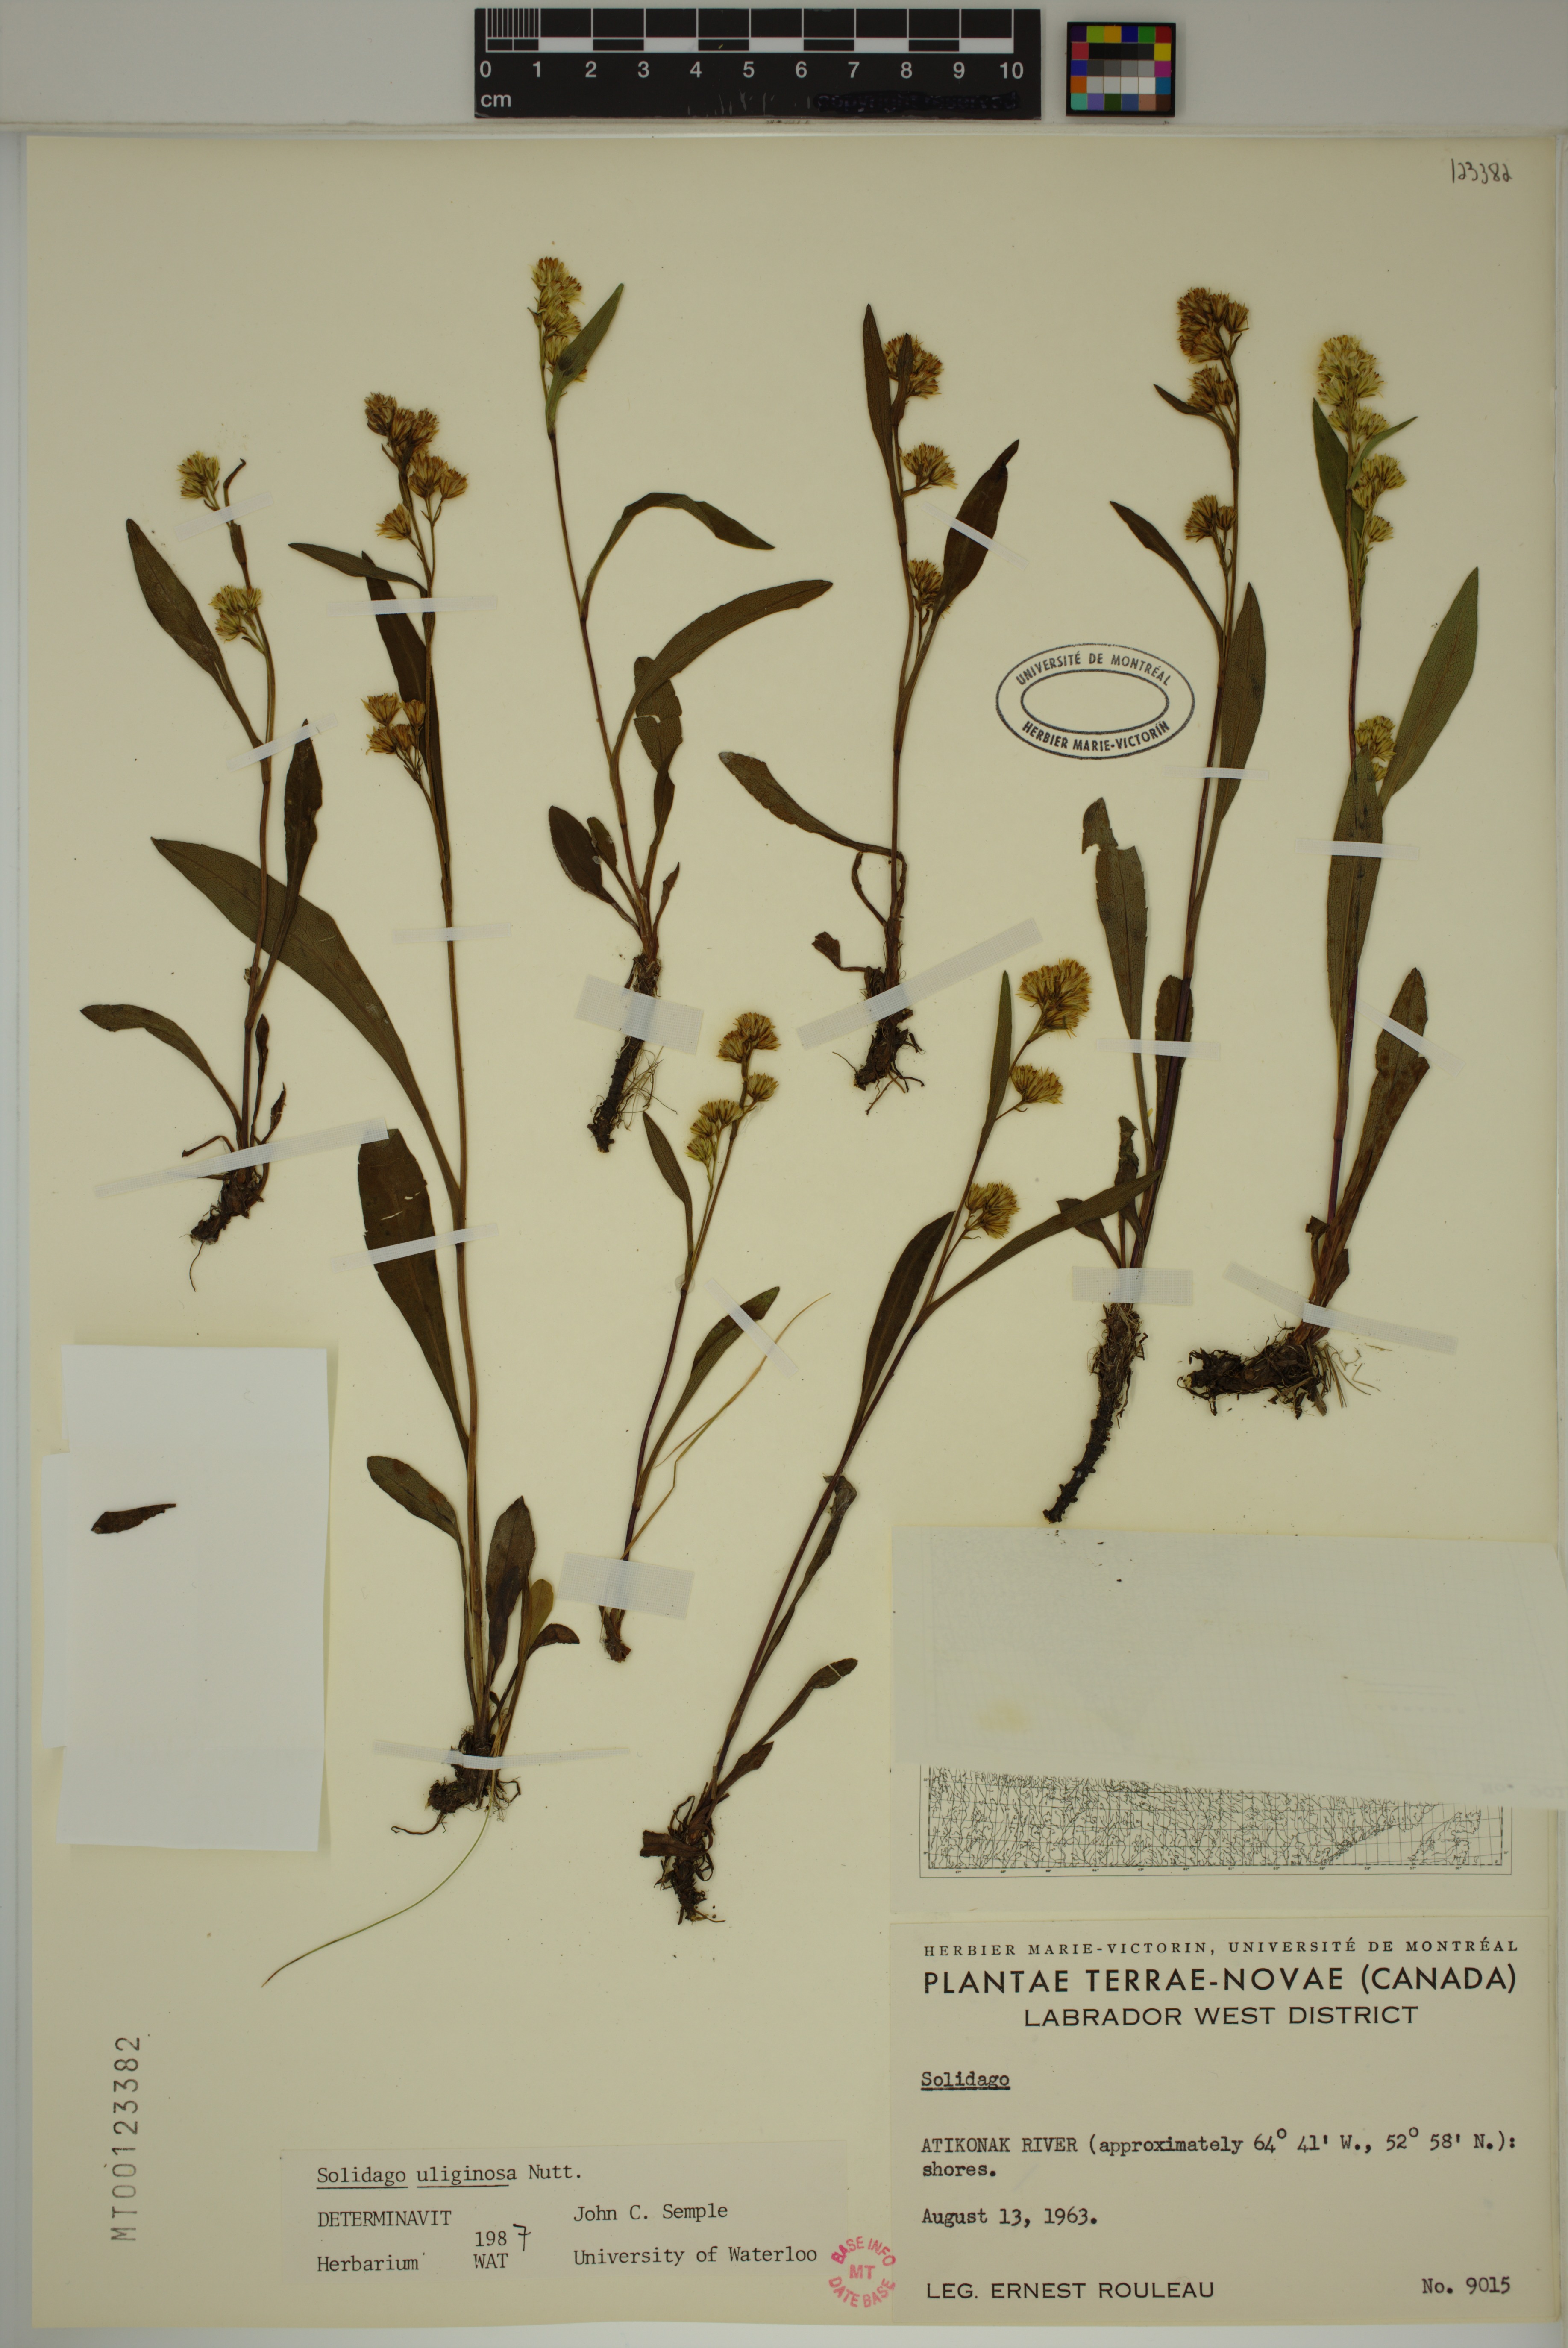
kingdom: Plantae
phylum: Tracheophyta
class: Magnoliopsida
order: Asterales
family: Asteraceae
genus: Solidago
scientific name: Solidago uliginosa
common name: Bog goldenrod
